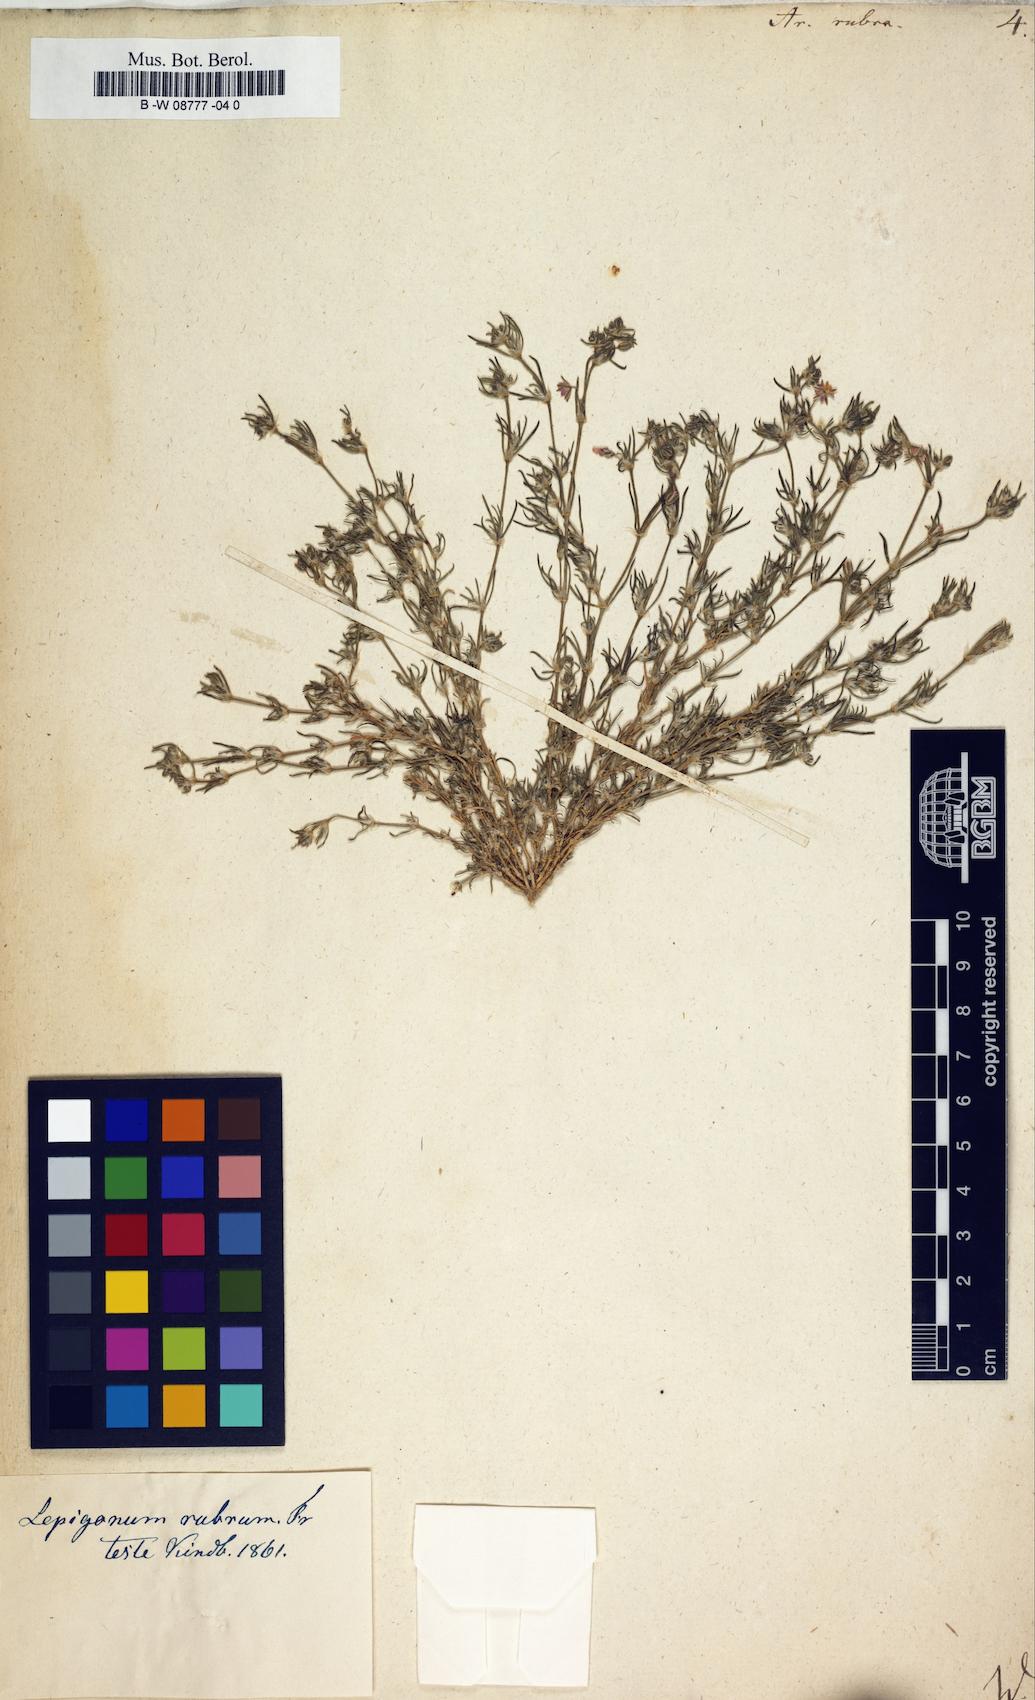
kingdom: Plantae
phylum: Tracheophyta
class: Magnoliopsida
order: Caryophyllales
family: Caryophyllaceae
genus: Spergularia
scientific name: Spergularia rubra
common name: Red sand-spurrey
